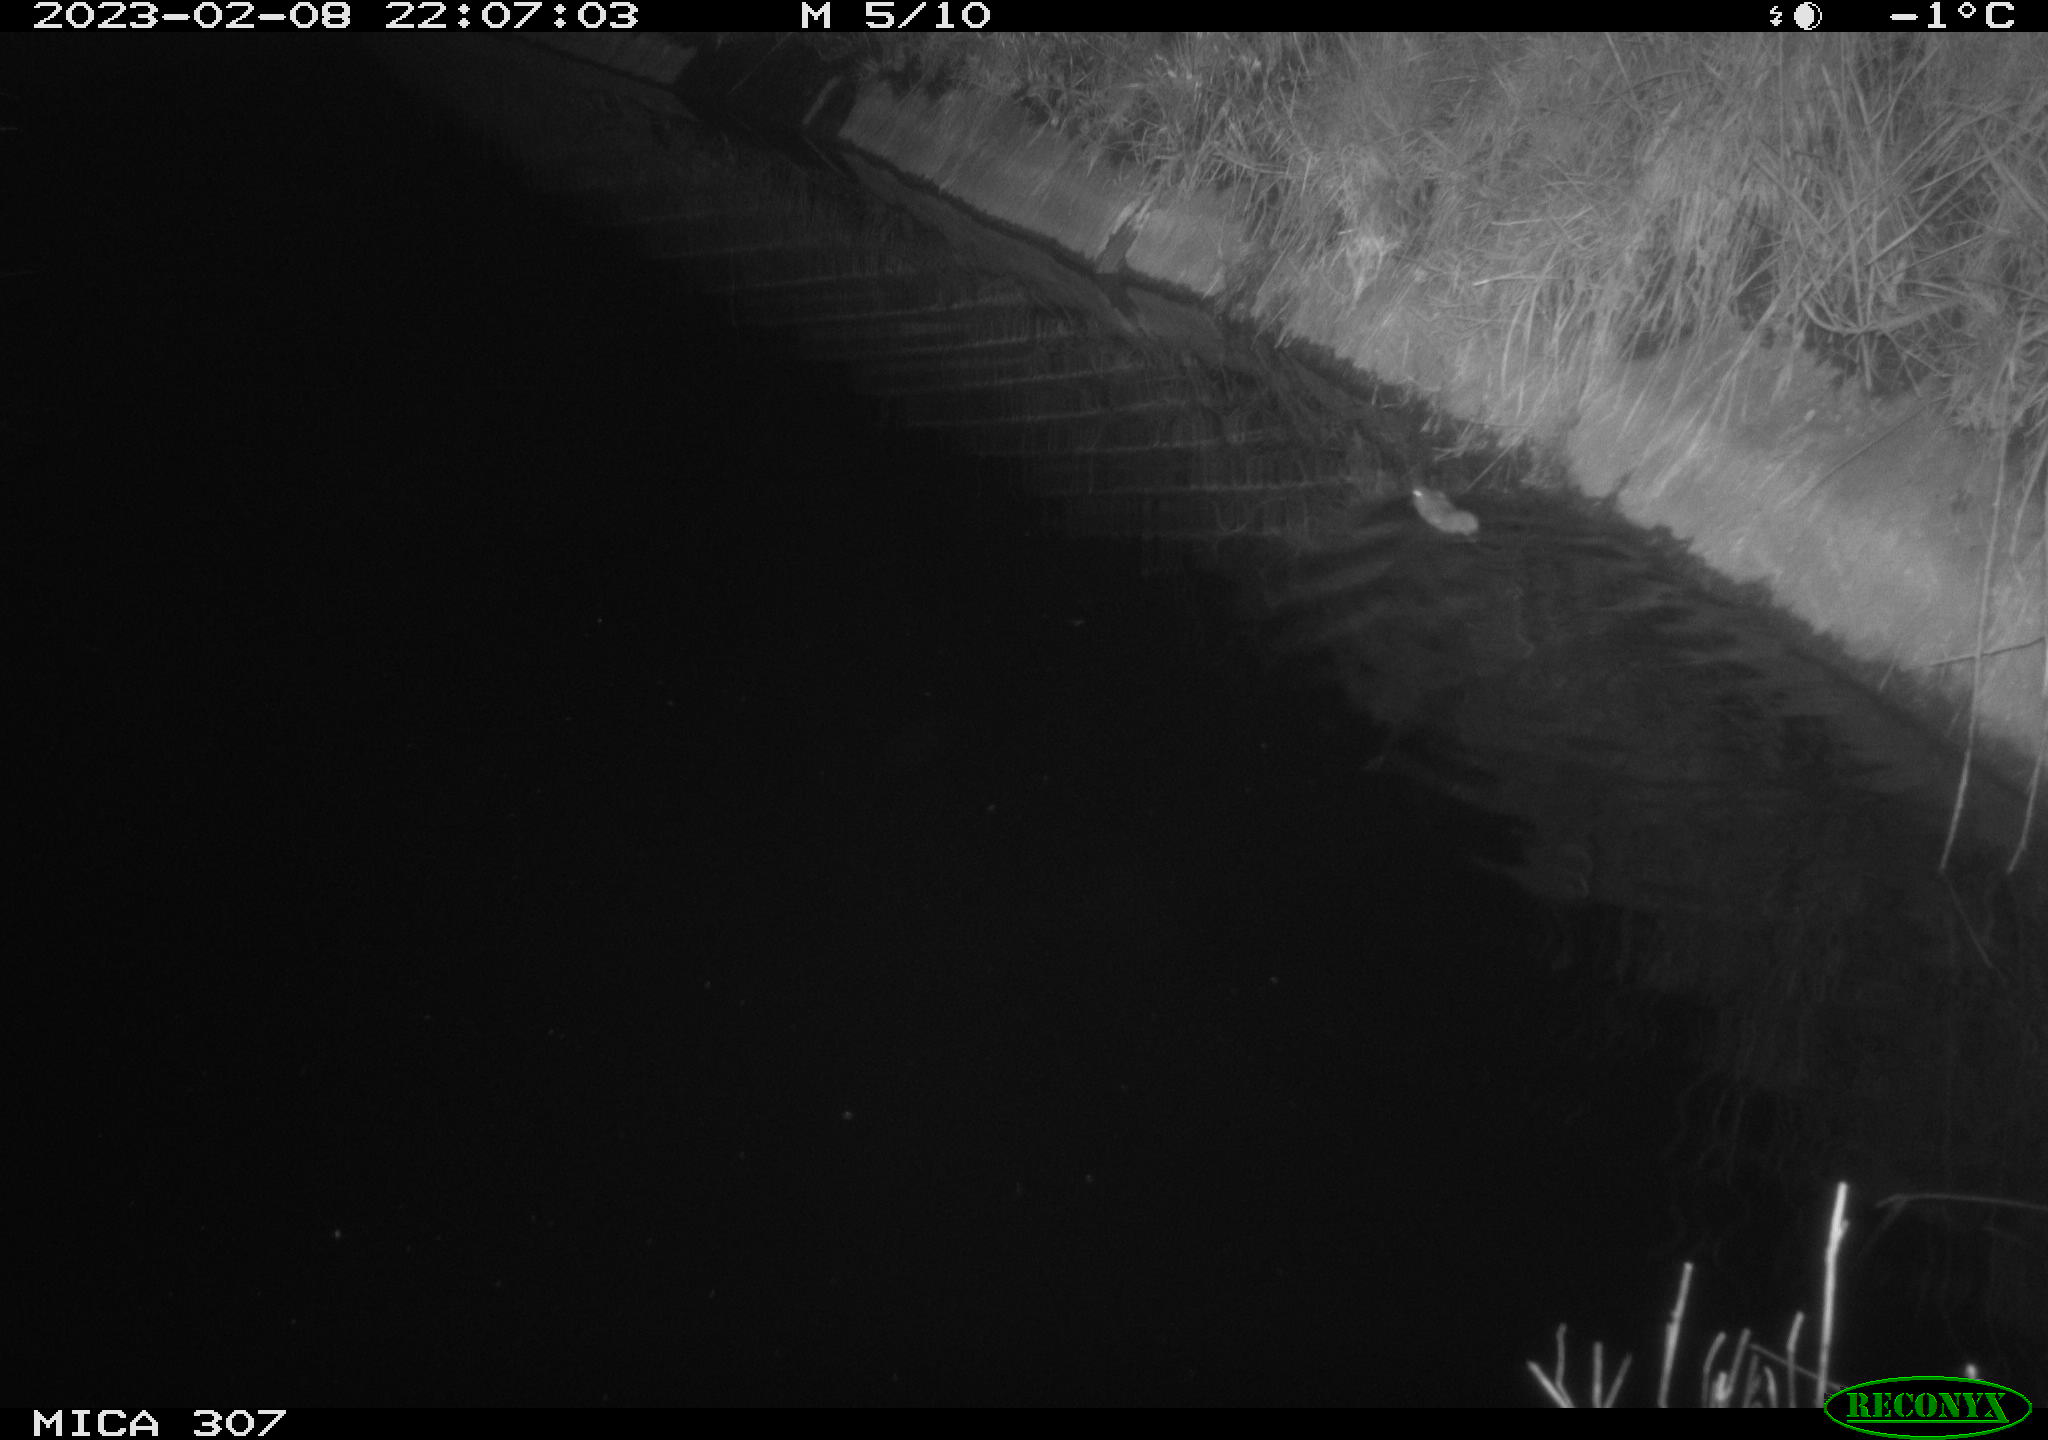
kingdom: Animalia
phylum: Chordata
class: Mammalia
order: Rodentia
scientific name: Rodentia
